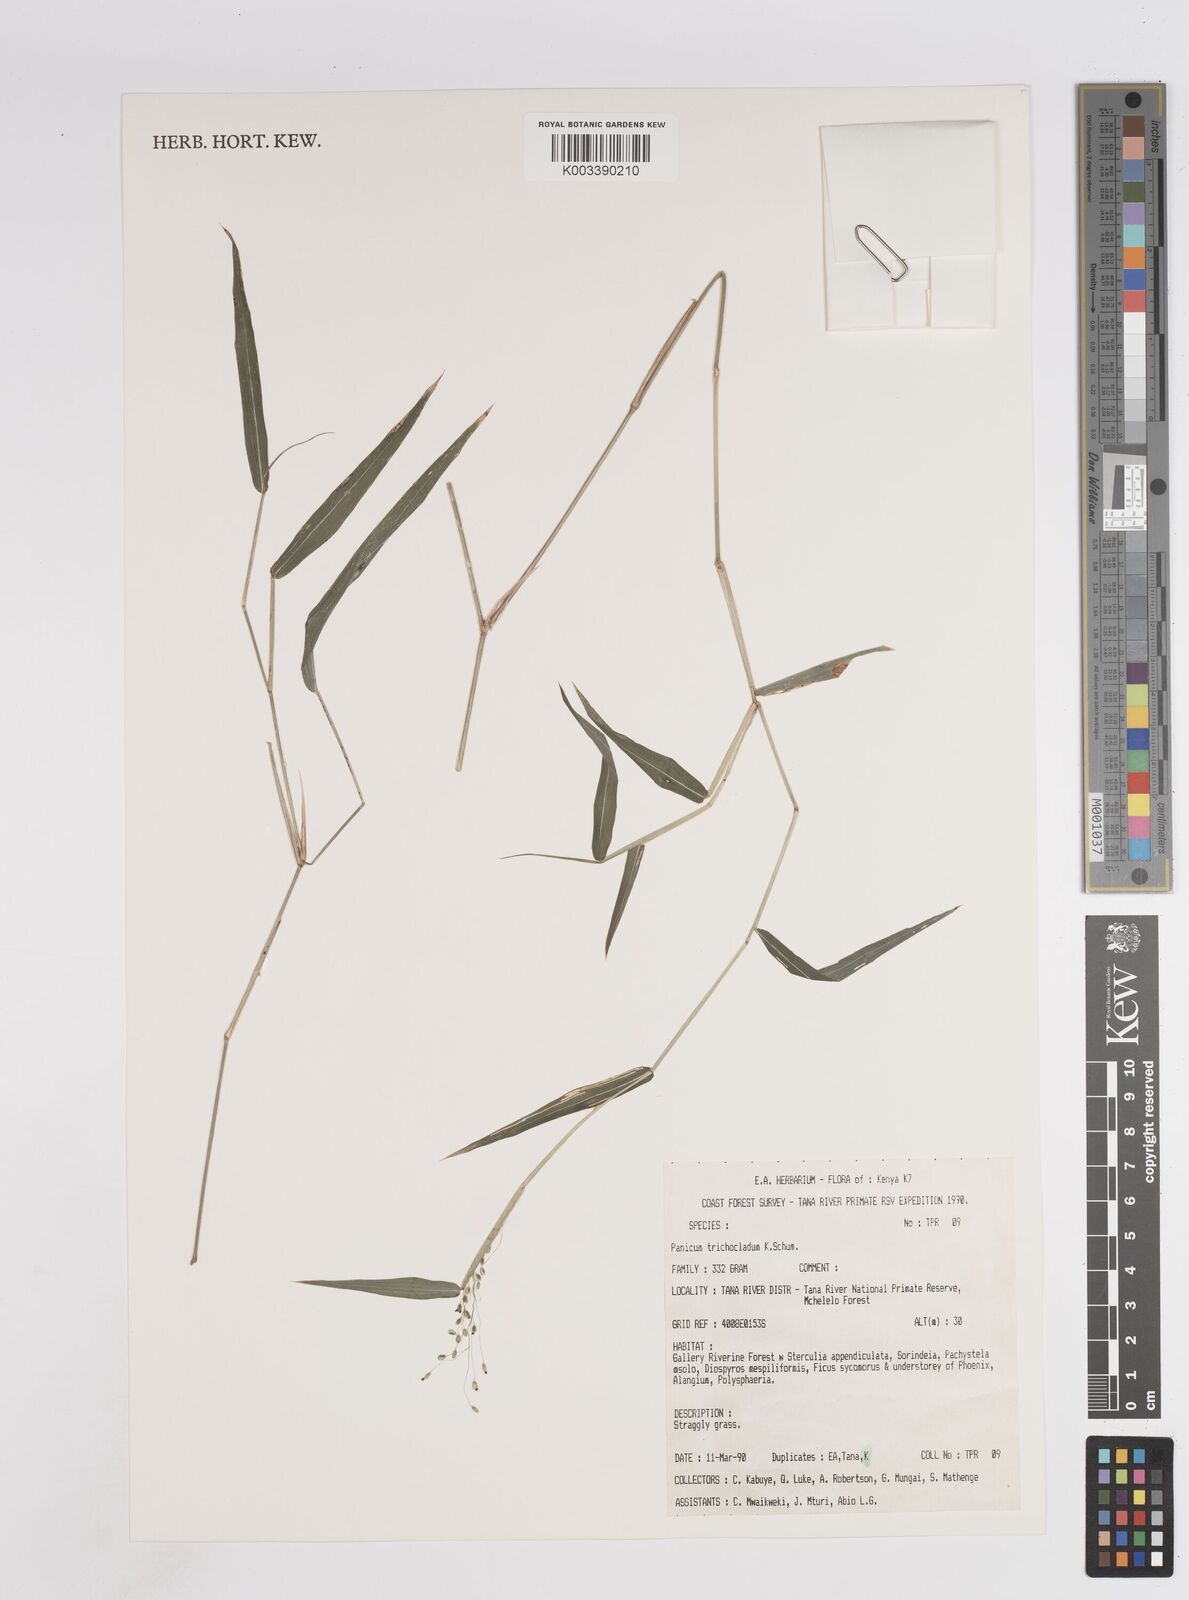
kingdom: Plantae
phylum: Tracheophyta
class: Liliopsida
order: Poales
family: Poaceae
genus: Panicum
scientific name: Panicum trichocladum
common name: Donkey grass
